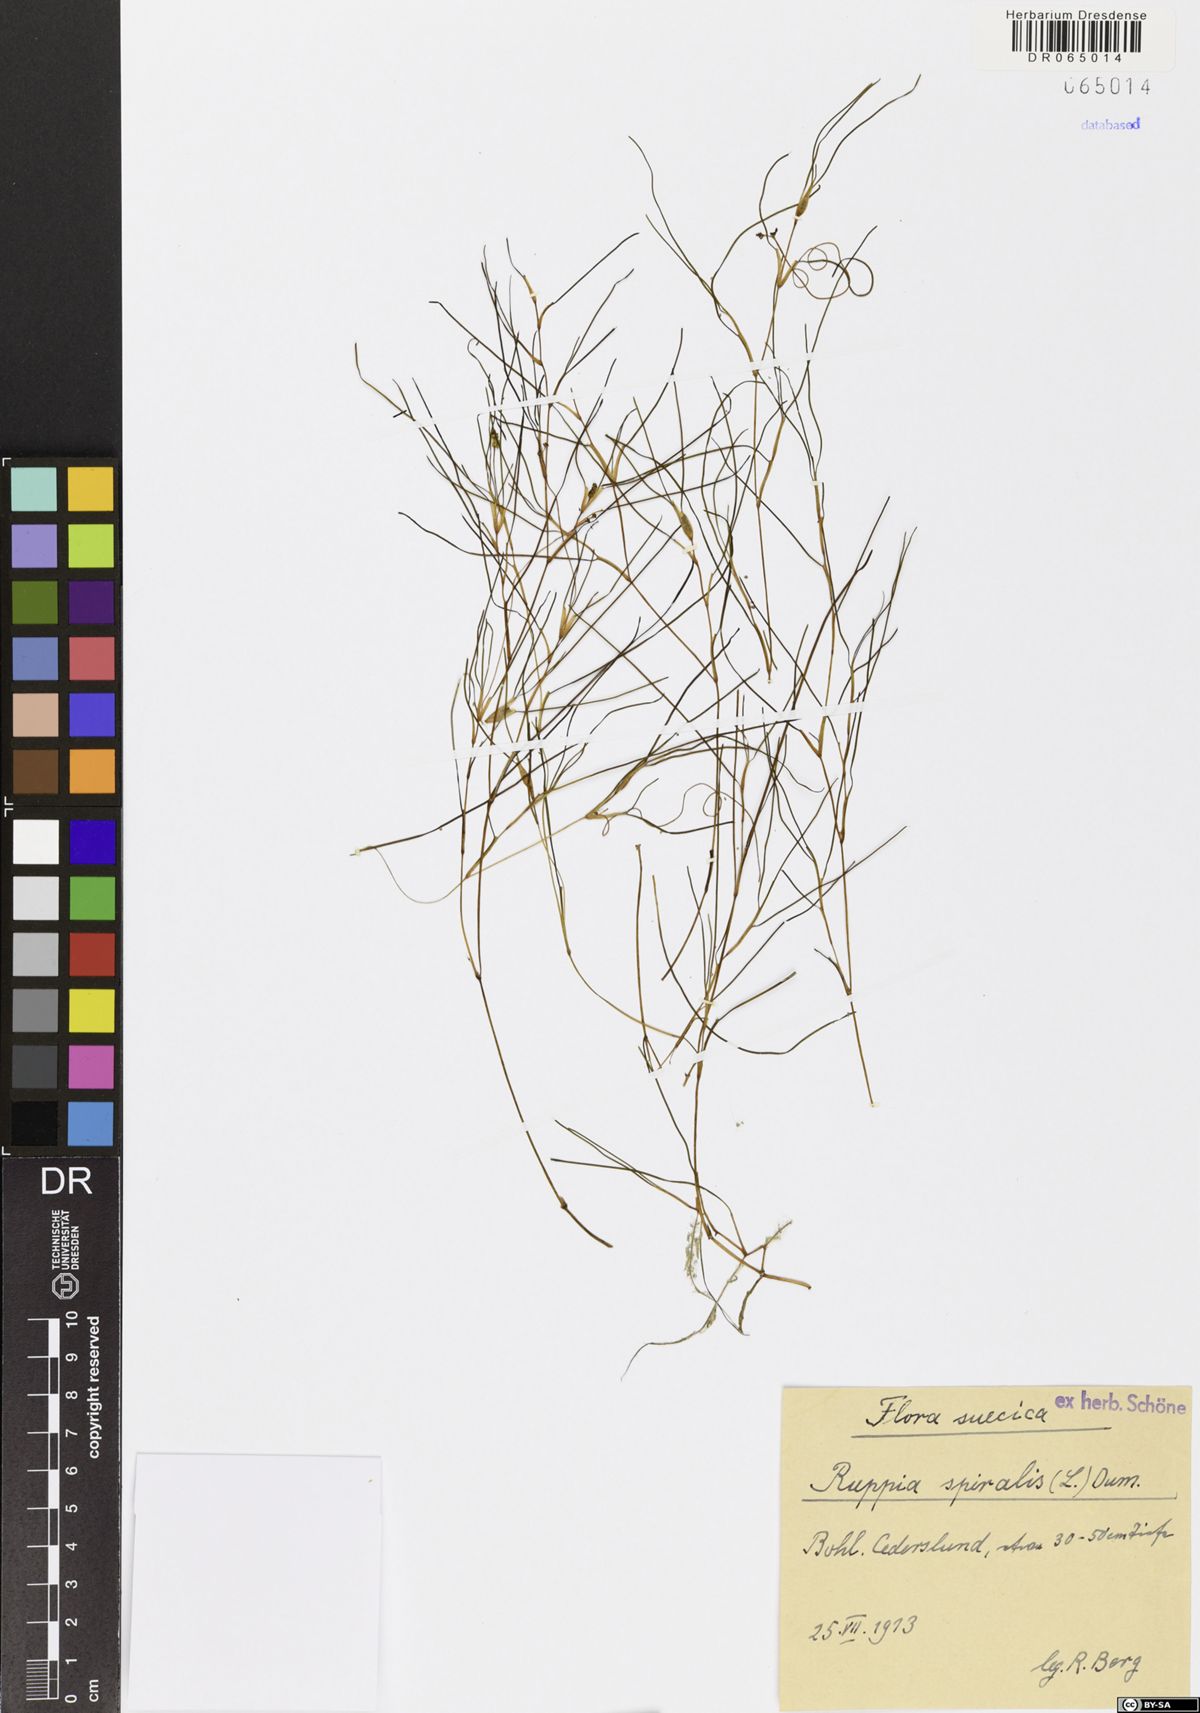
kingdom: Plantae
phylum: Tracheophyta
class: Liliopsida
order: Alismatales
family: Ruppiaceae
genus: Ruppia
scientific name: Ruppia cirrhosa
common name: Spiral tasselweed
